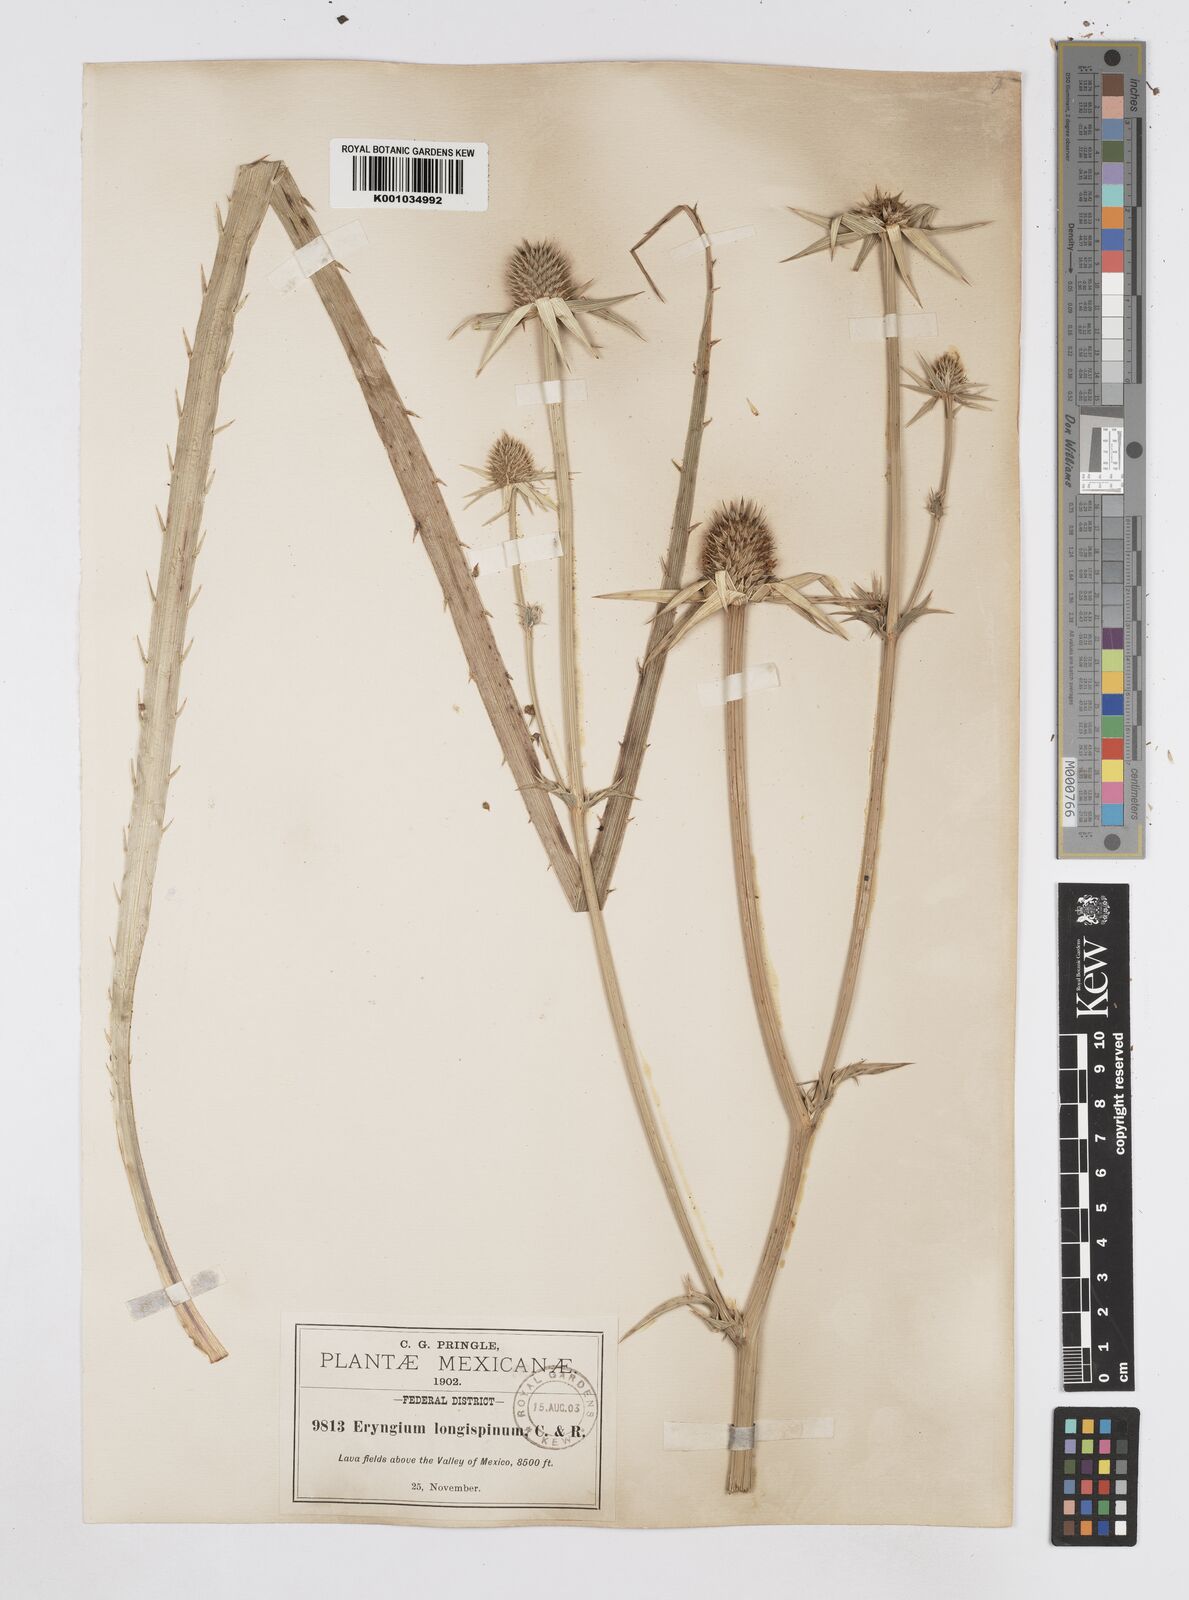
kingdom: Plantae
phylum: Tracheophyta
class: Magnoliopsida
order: Apiales
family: Apiaceae
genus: Eryngium
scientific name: Eryngium pectinatum
